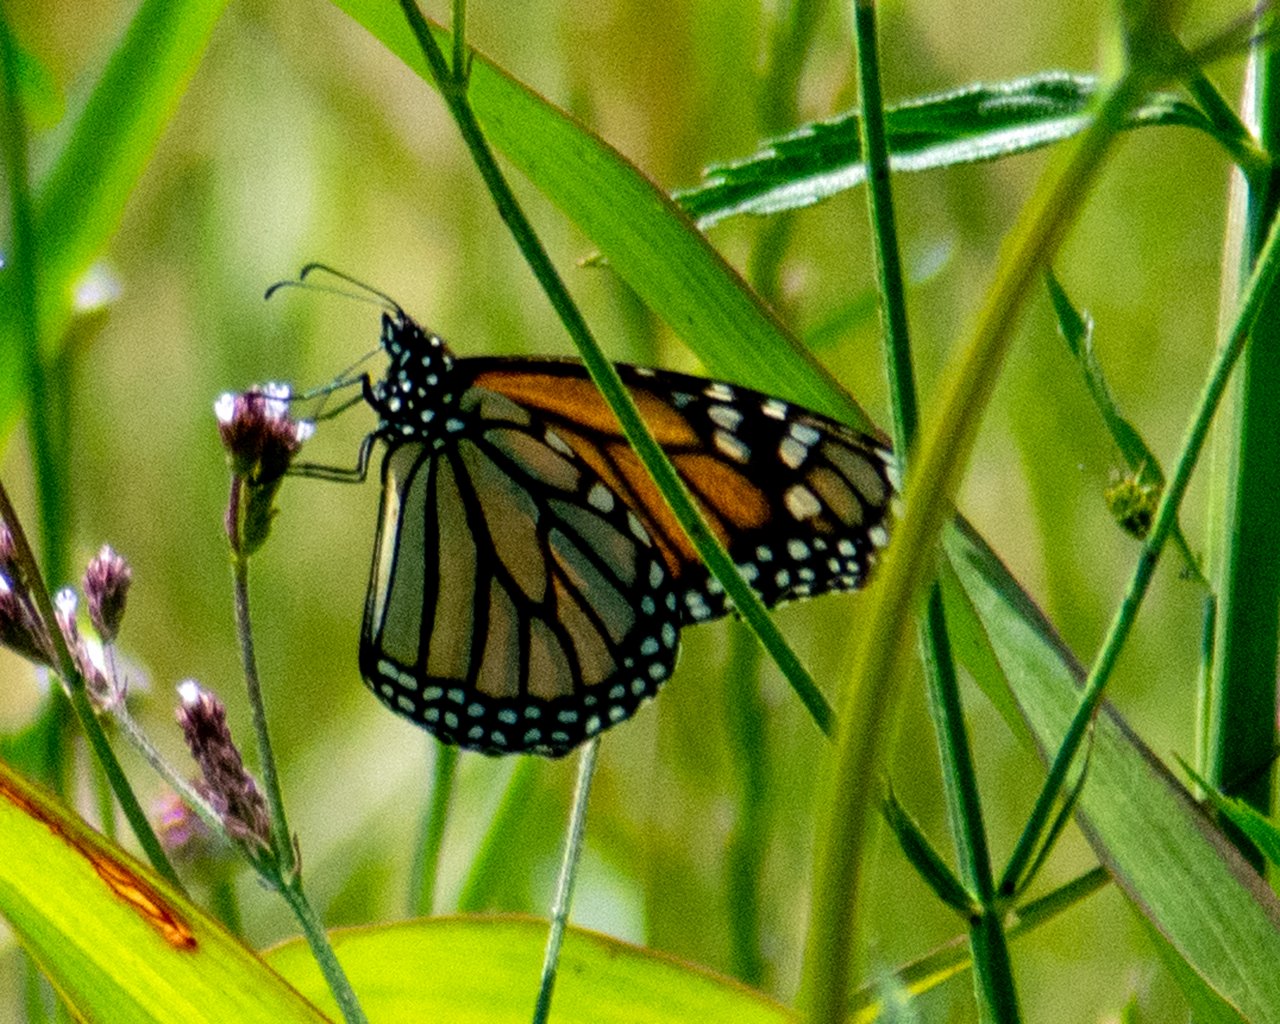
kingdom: Animalia
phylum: Arthropoda
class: Insecta
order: Lepidoptera
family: Nymphalidae
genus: Danaus
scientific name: Danaus plexippus
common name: Monarch
